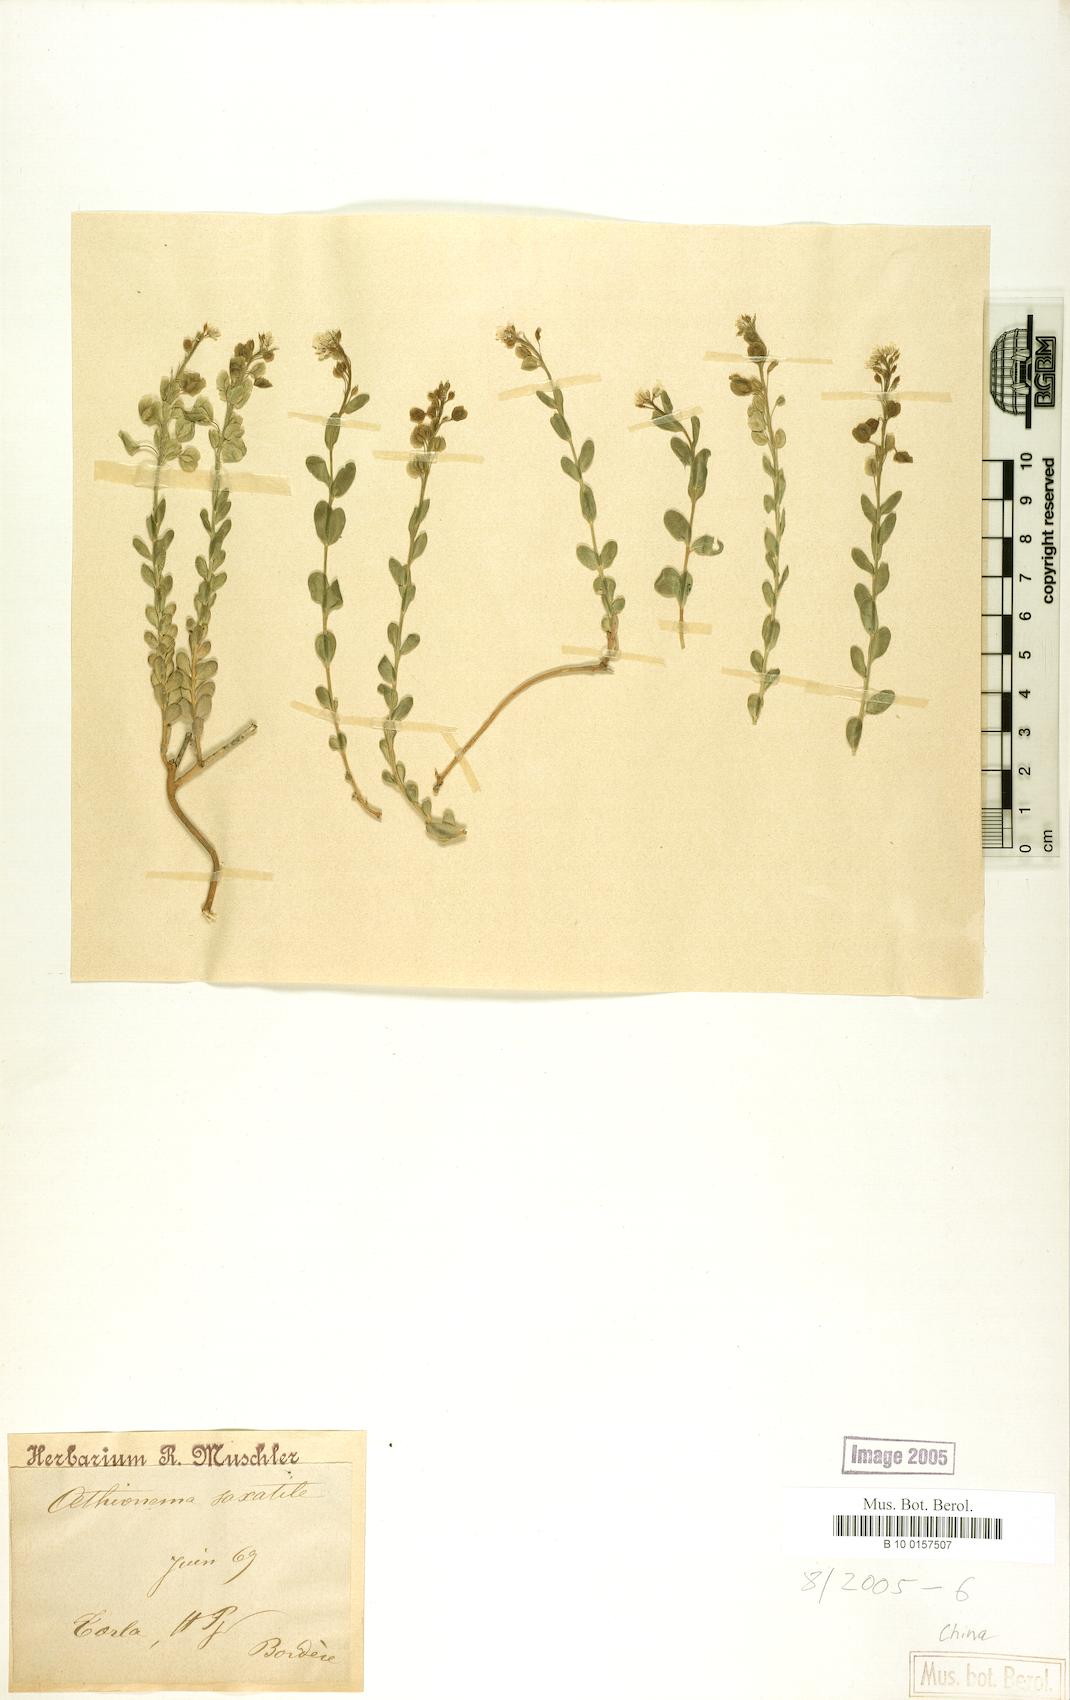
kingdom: Plantae
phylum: Tracheophyta
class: Magnoliopsida
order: Brassicales
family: Brassicaceae
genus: Aethionema
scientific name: Aethionema saxatile
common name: Burnt candytuft
